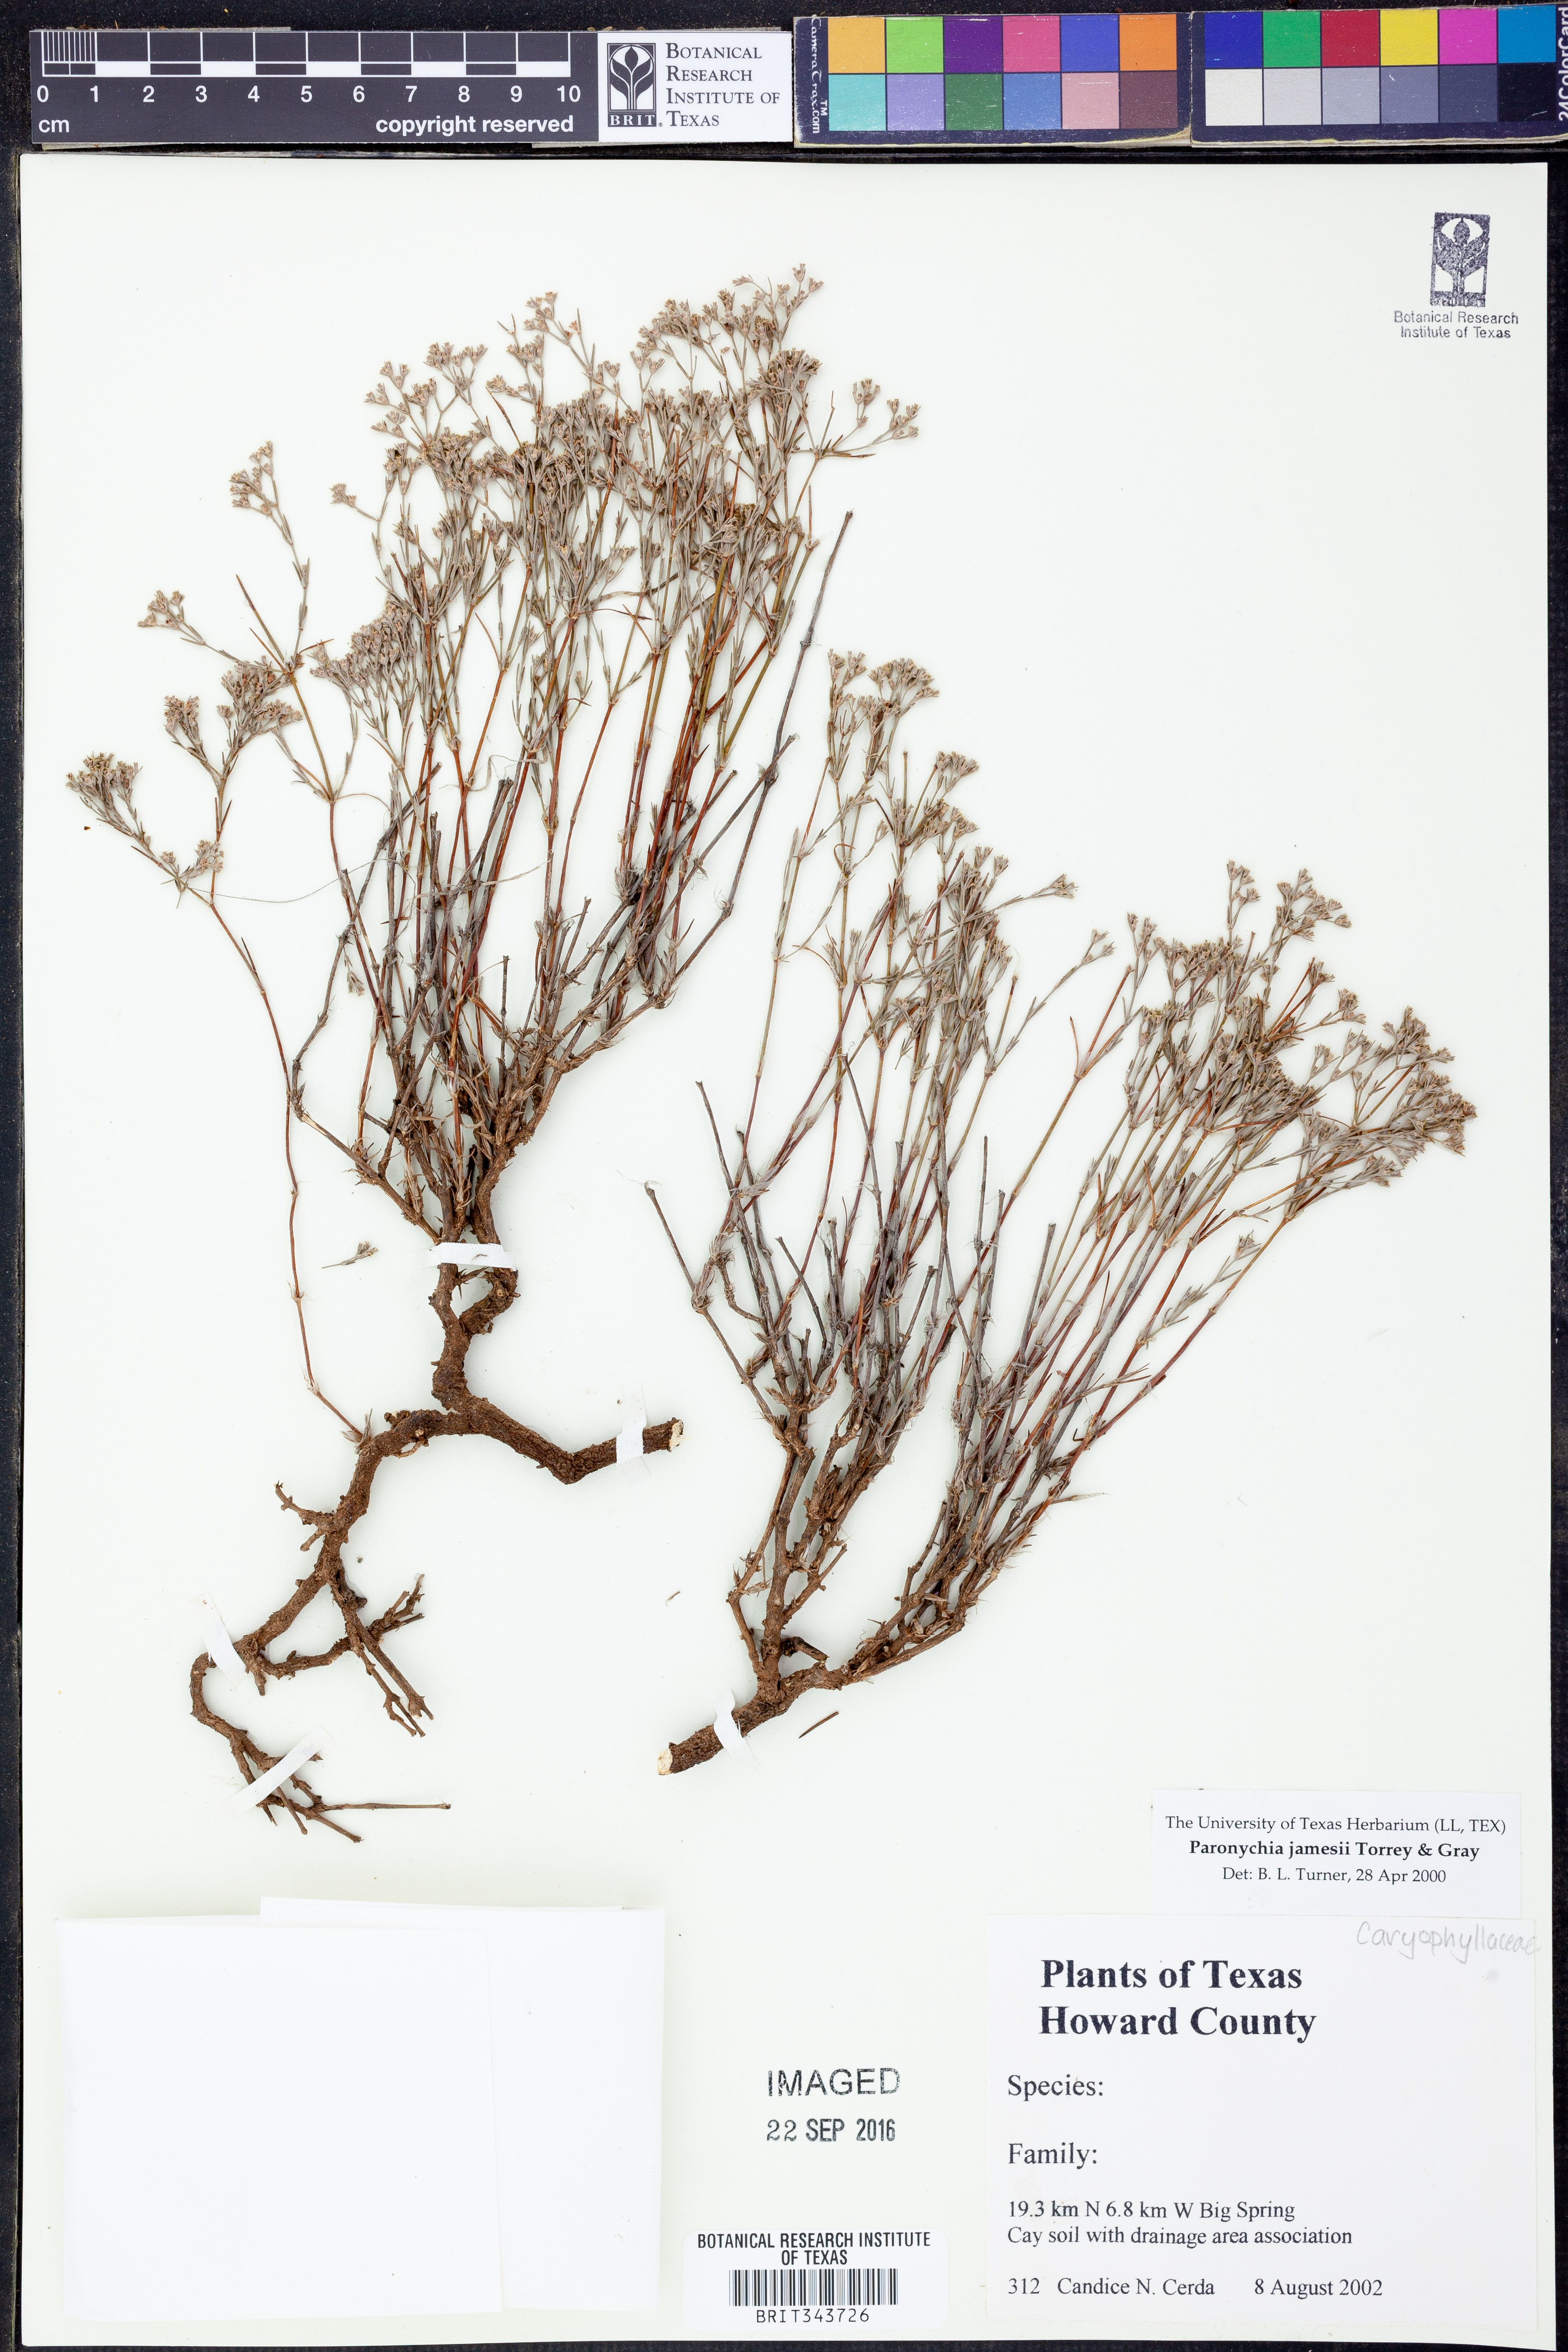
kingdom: Plantae
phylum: Tracheophyta
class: Magnoliopsida
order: Caryophyllales
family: Caryophyllaceae
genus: Paronychia
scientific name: Paronychia jamesii
